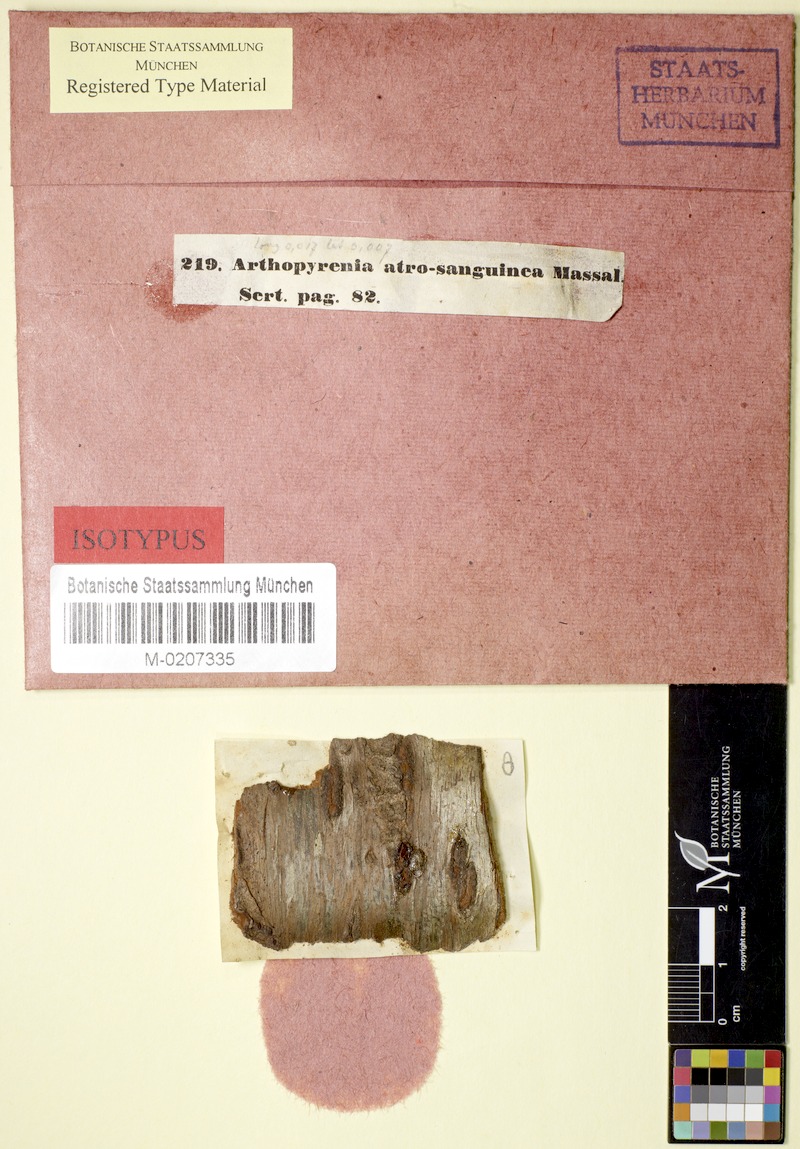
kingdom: Fungi
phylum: Ascomycota
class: Dothideomycetes
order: Pleosporales
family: Naetrocymbaceae
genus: Naetrocymbe
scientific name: Naetrocymbe punctiformis
